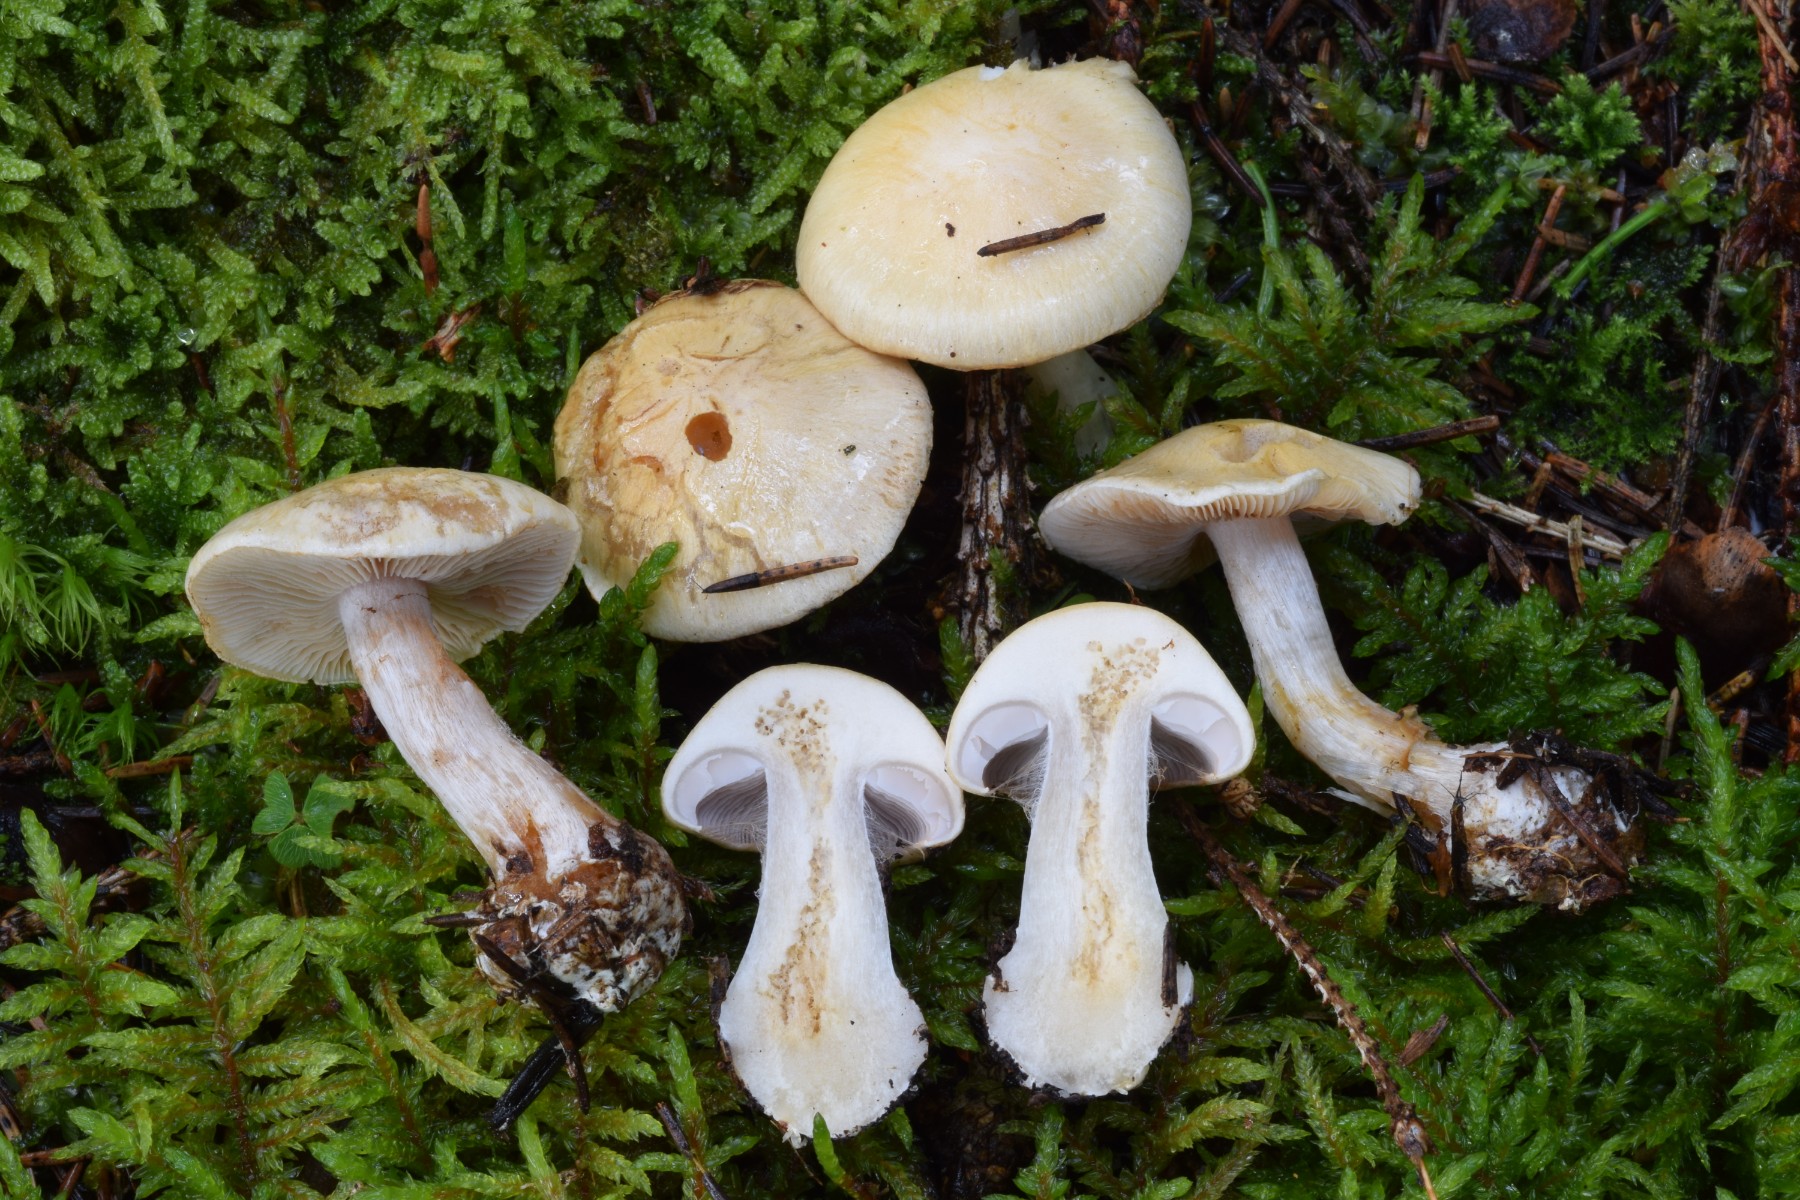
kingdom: Fungi
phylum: Basidiomycota
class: Agaricomycetes
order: Agaricales
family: Cortinariaceae
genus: Cortinarius
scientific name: Cortinarius caesiostramineus
